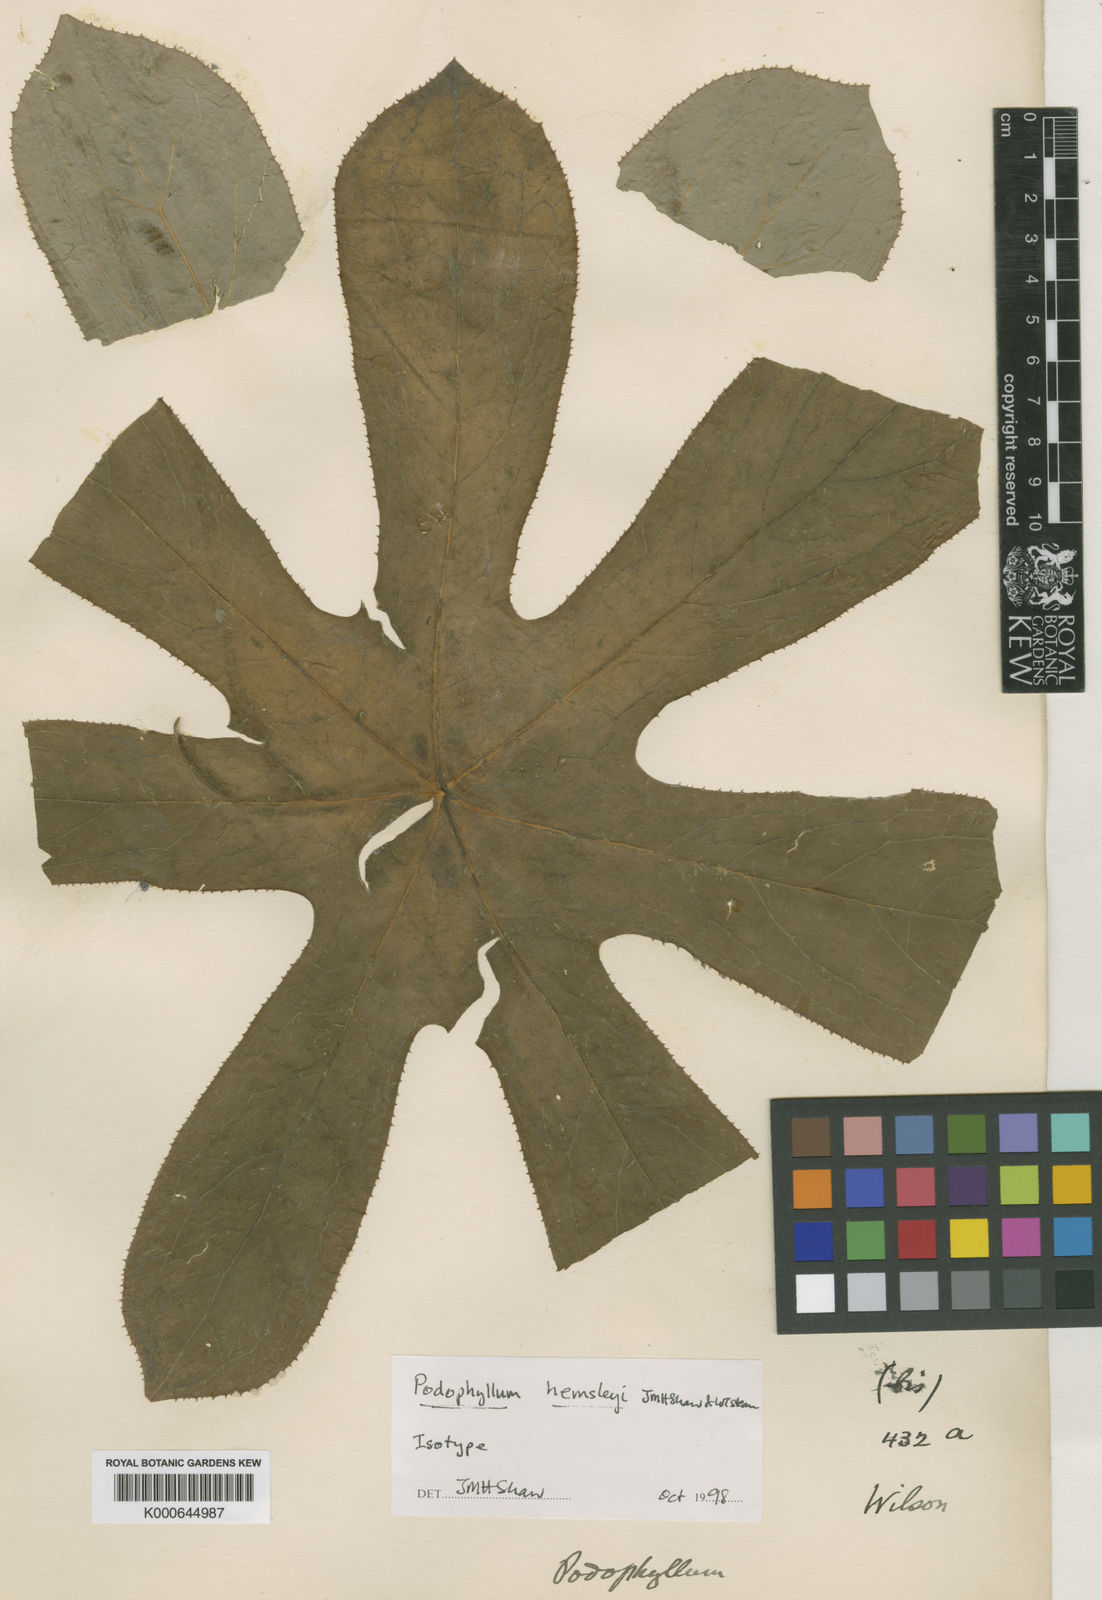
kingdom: Plantae
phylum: Tracheophyta
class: Magnoliopsida
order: Ranunculales
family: Berberidaceae
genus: Dysosma
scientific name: Dysosma delavayi
